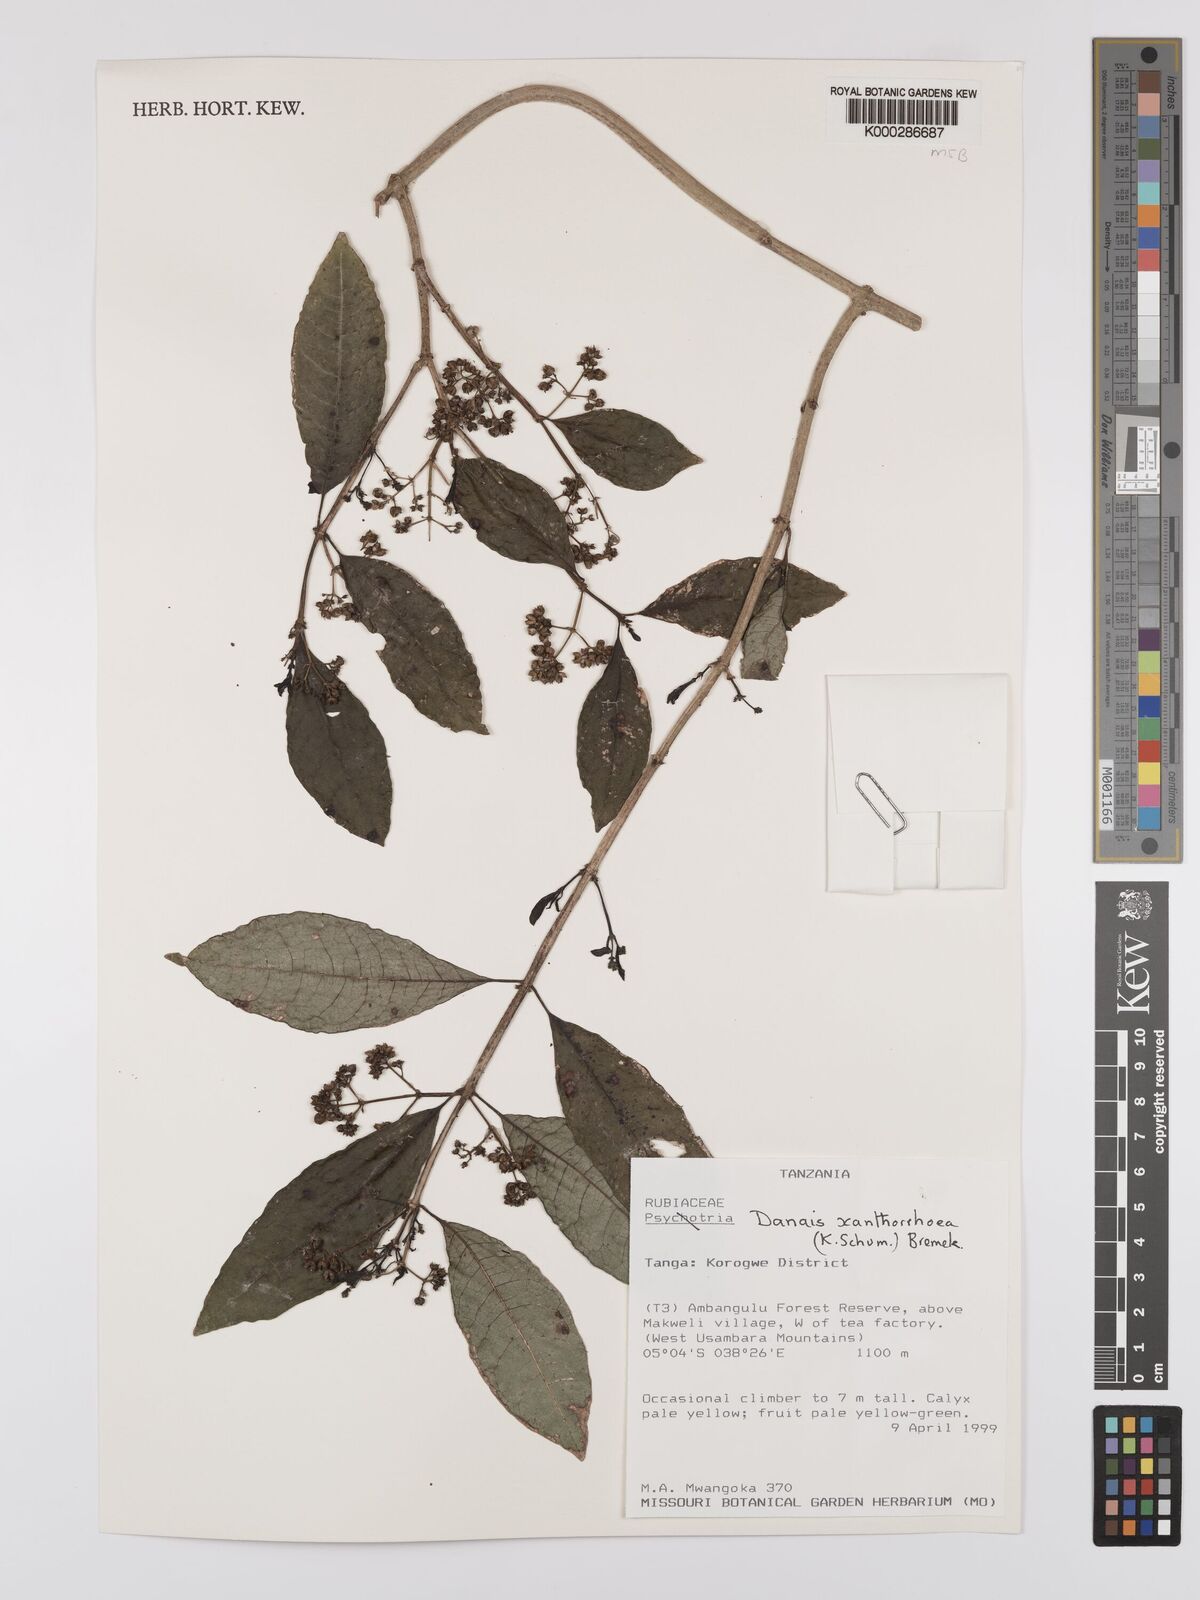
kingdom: Plantae
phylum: Tracheophyta
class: Magnoliopsida
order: Gentianales
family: Rubiaceae
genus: Danais
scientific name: Danais xanthorrhoea
